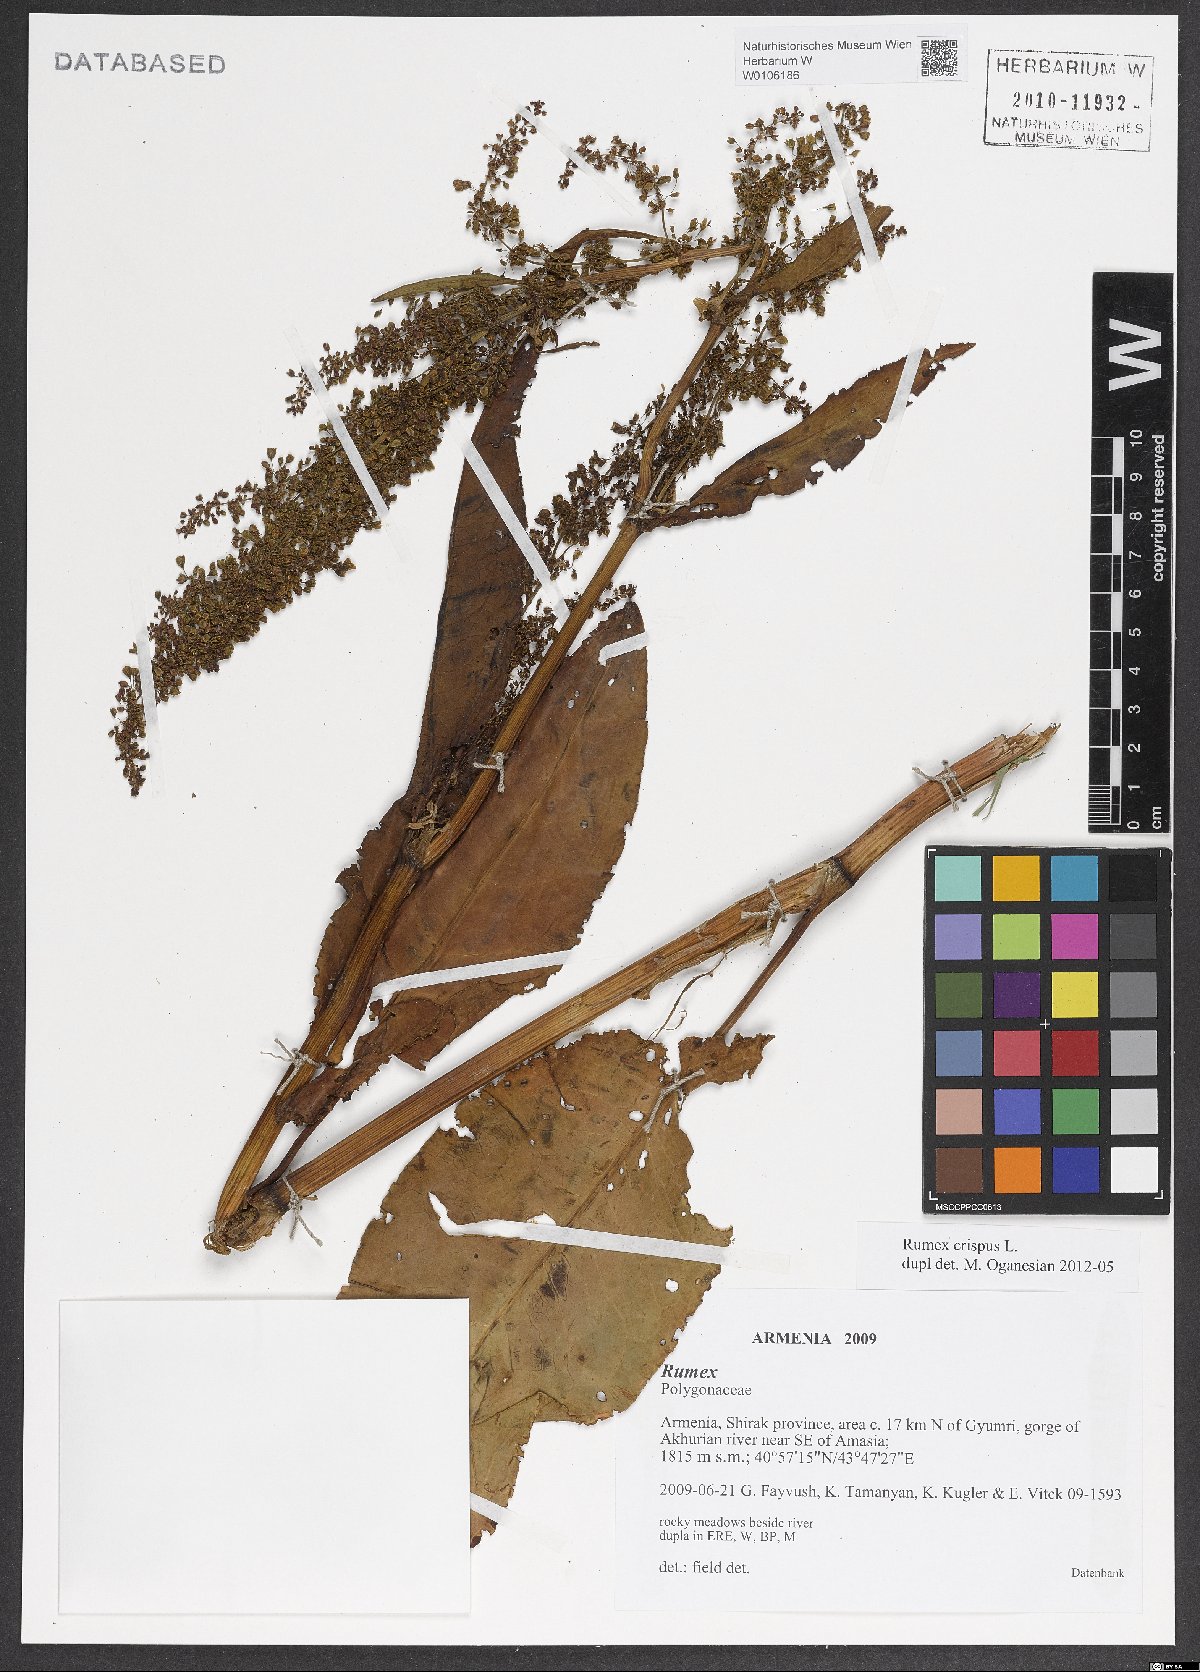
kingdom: Plantae
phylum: Tracheophyta
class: Magnoliopsida
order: Caryophyllales
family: Polygonaceae
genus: Rumex
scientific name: Rumex crispus
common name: Curled dock
